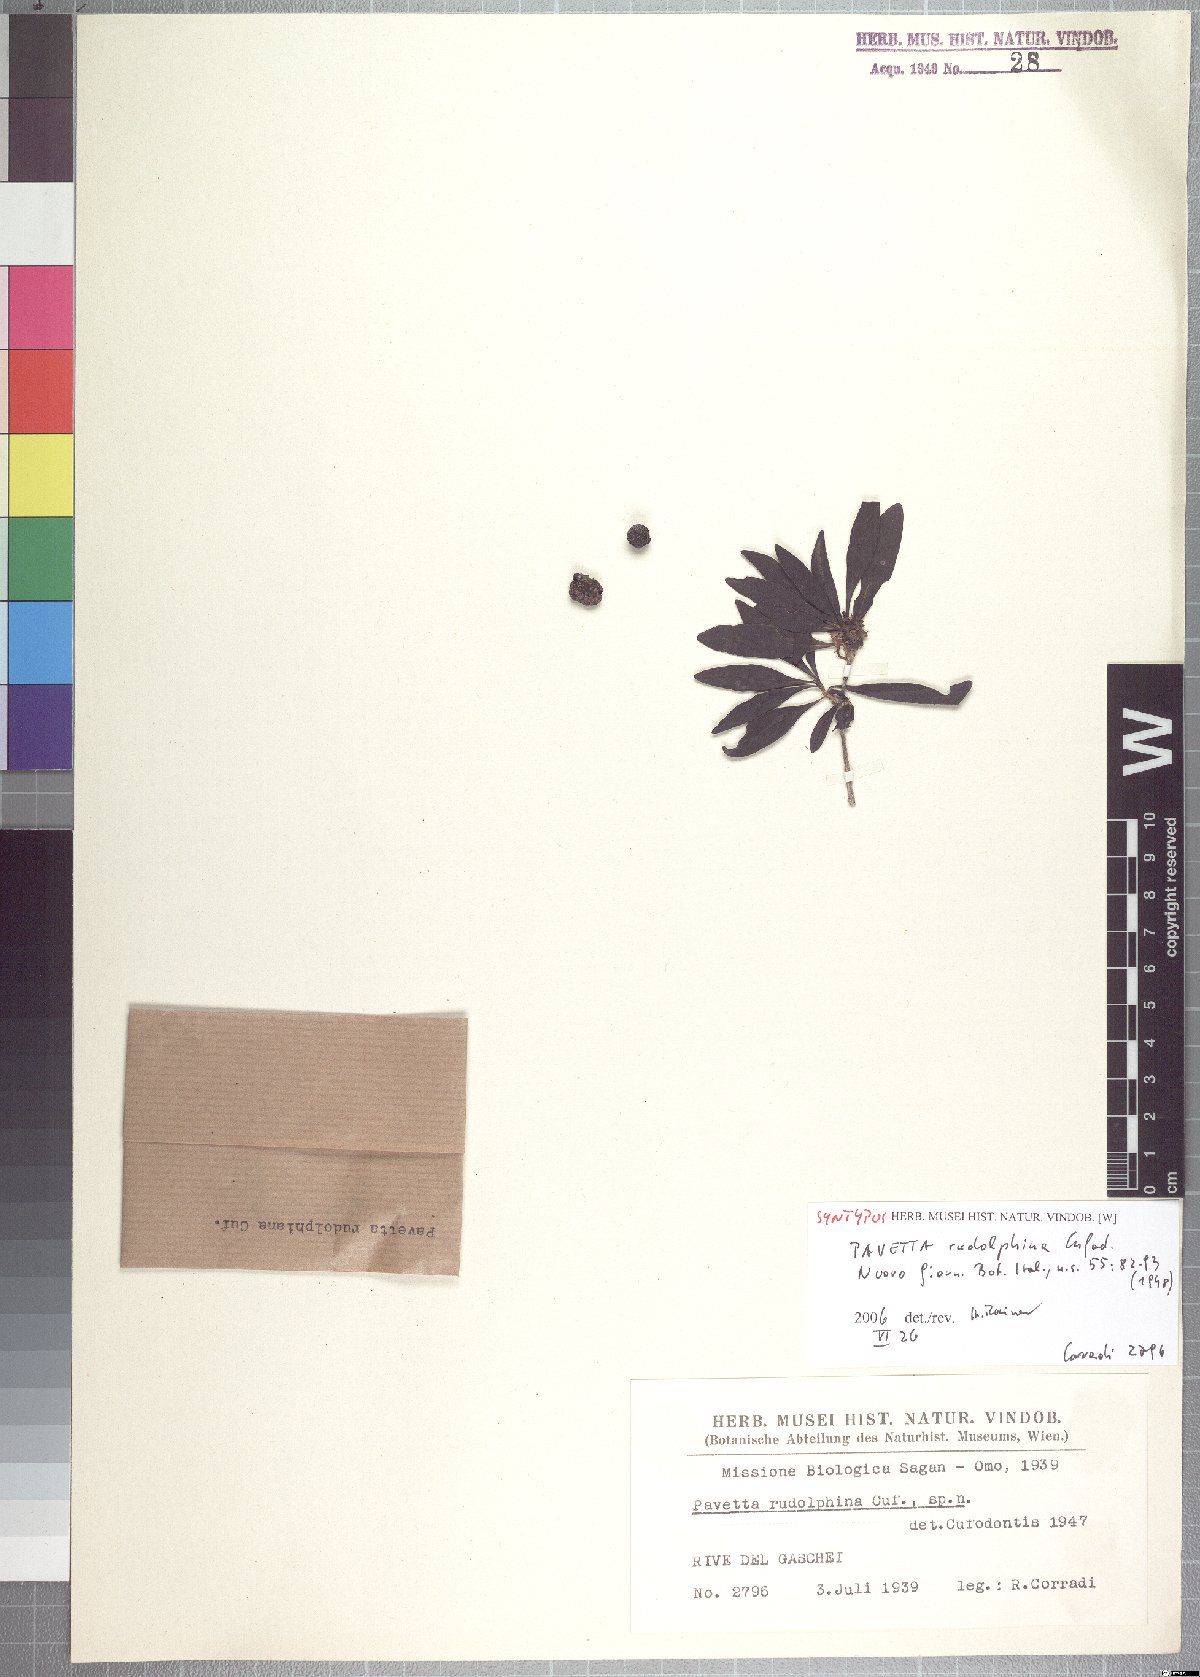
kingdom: Plantae
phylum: Tracheophyta
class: Magnoliopsida
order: Gentianales
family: Rubiaceae
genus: Pavetta
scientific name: Pavetta subcana
